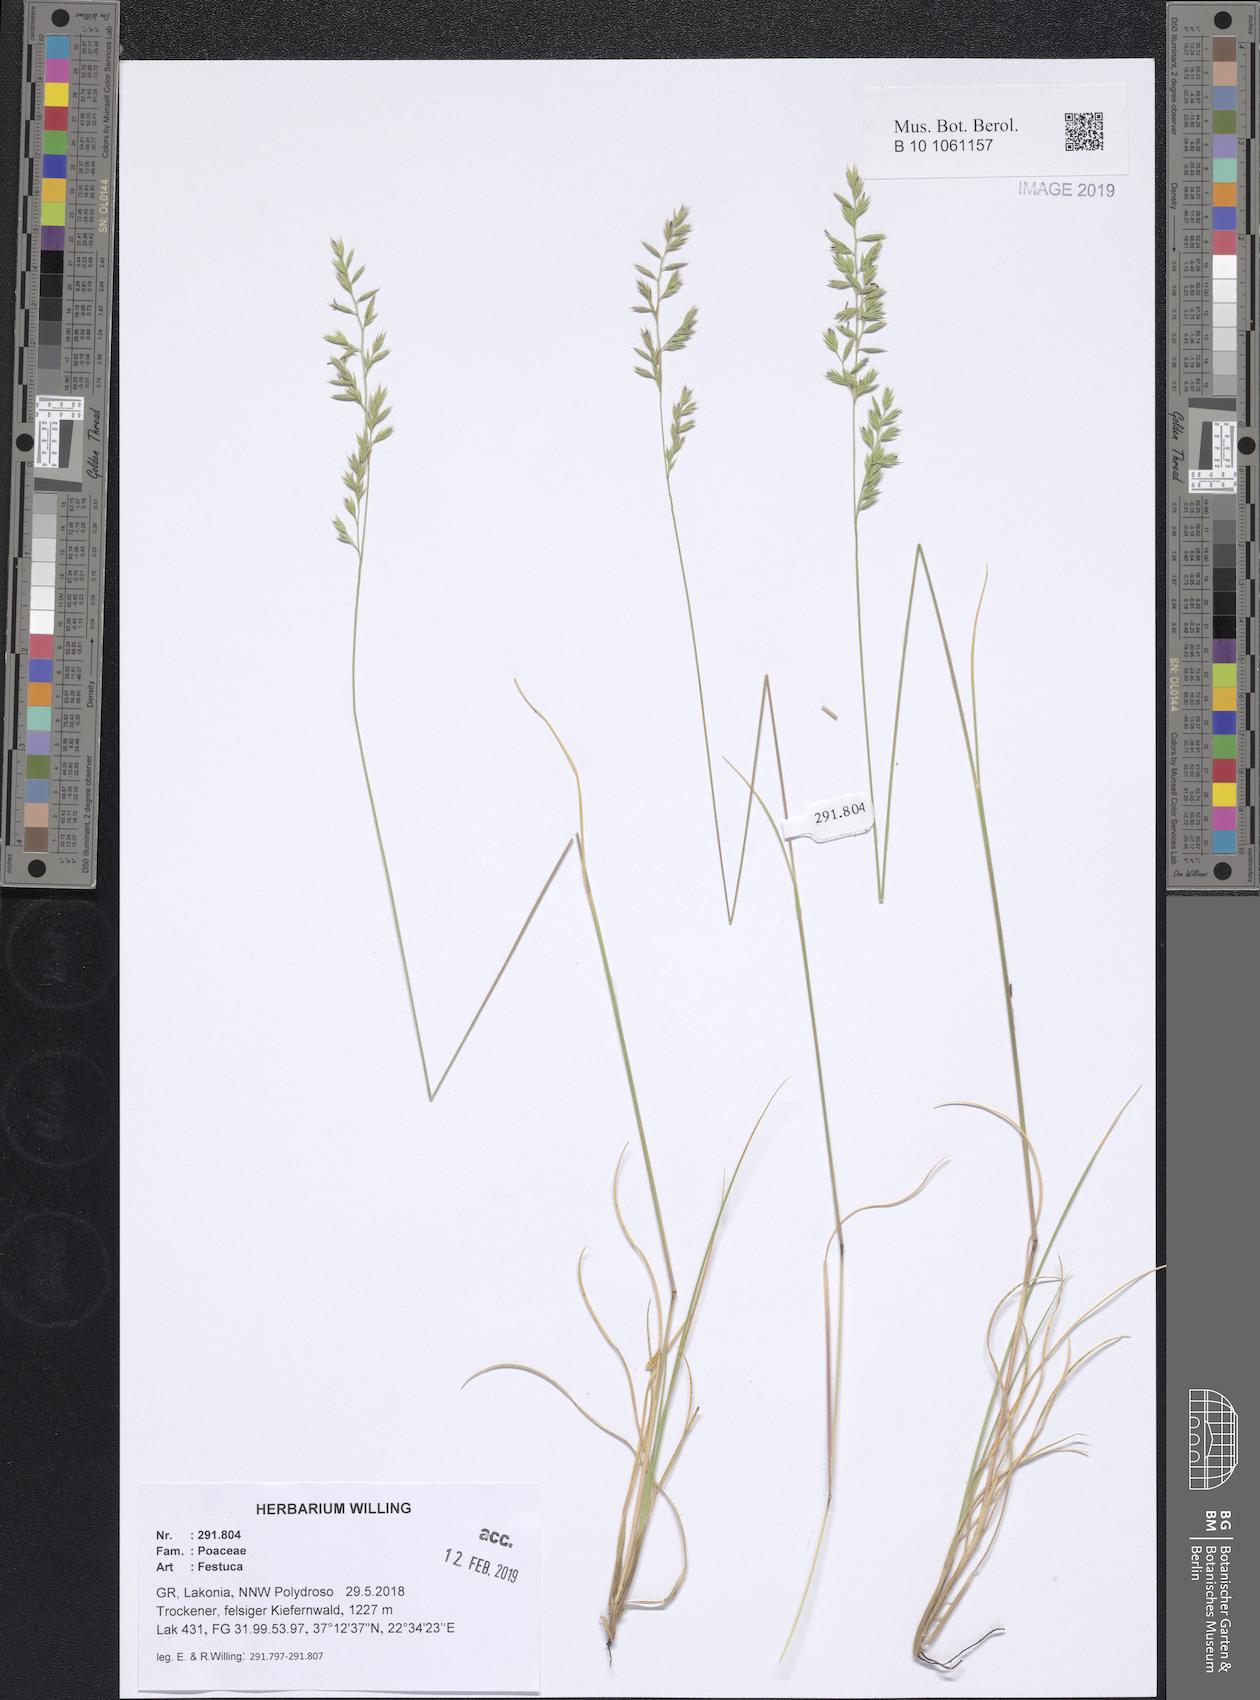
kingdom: Plantae
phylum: Tracheophyta
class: Liliopsida
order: Poales
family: Poaceae
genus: Festuca
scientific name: Festuca
